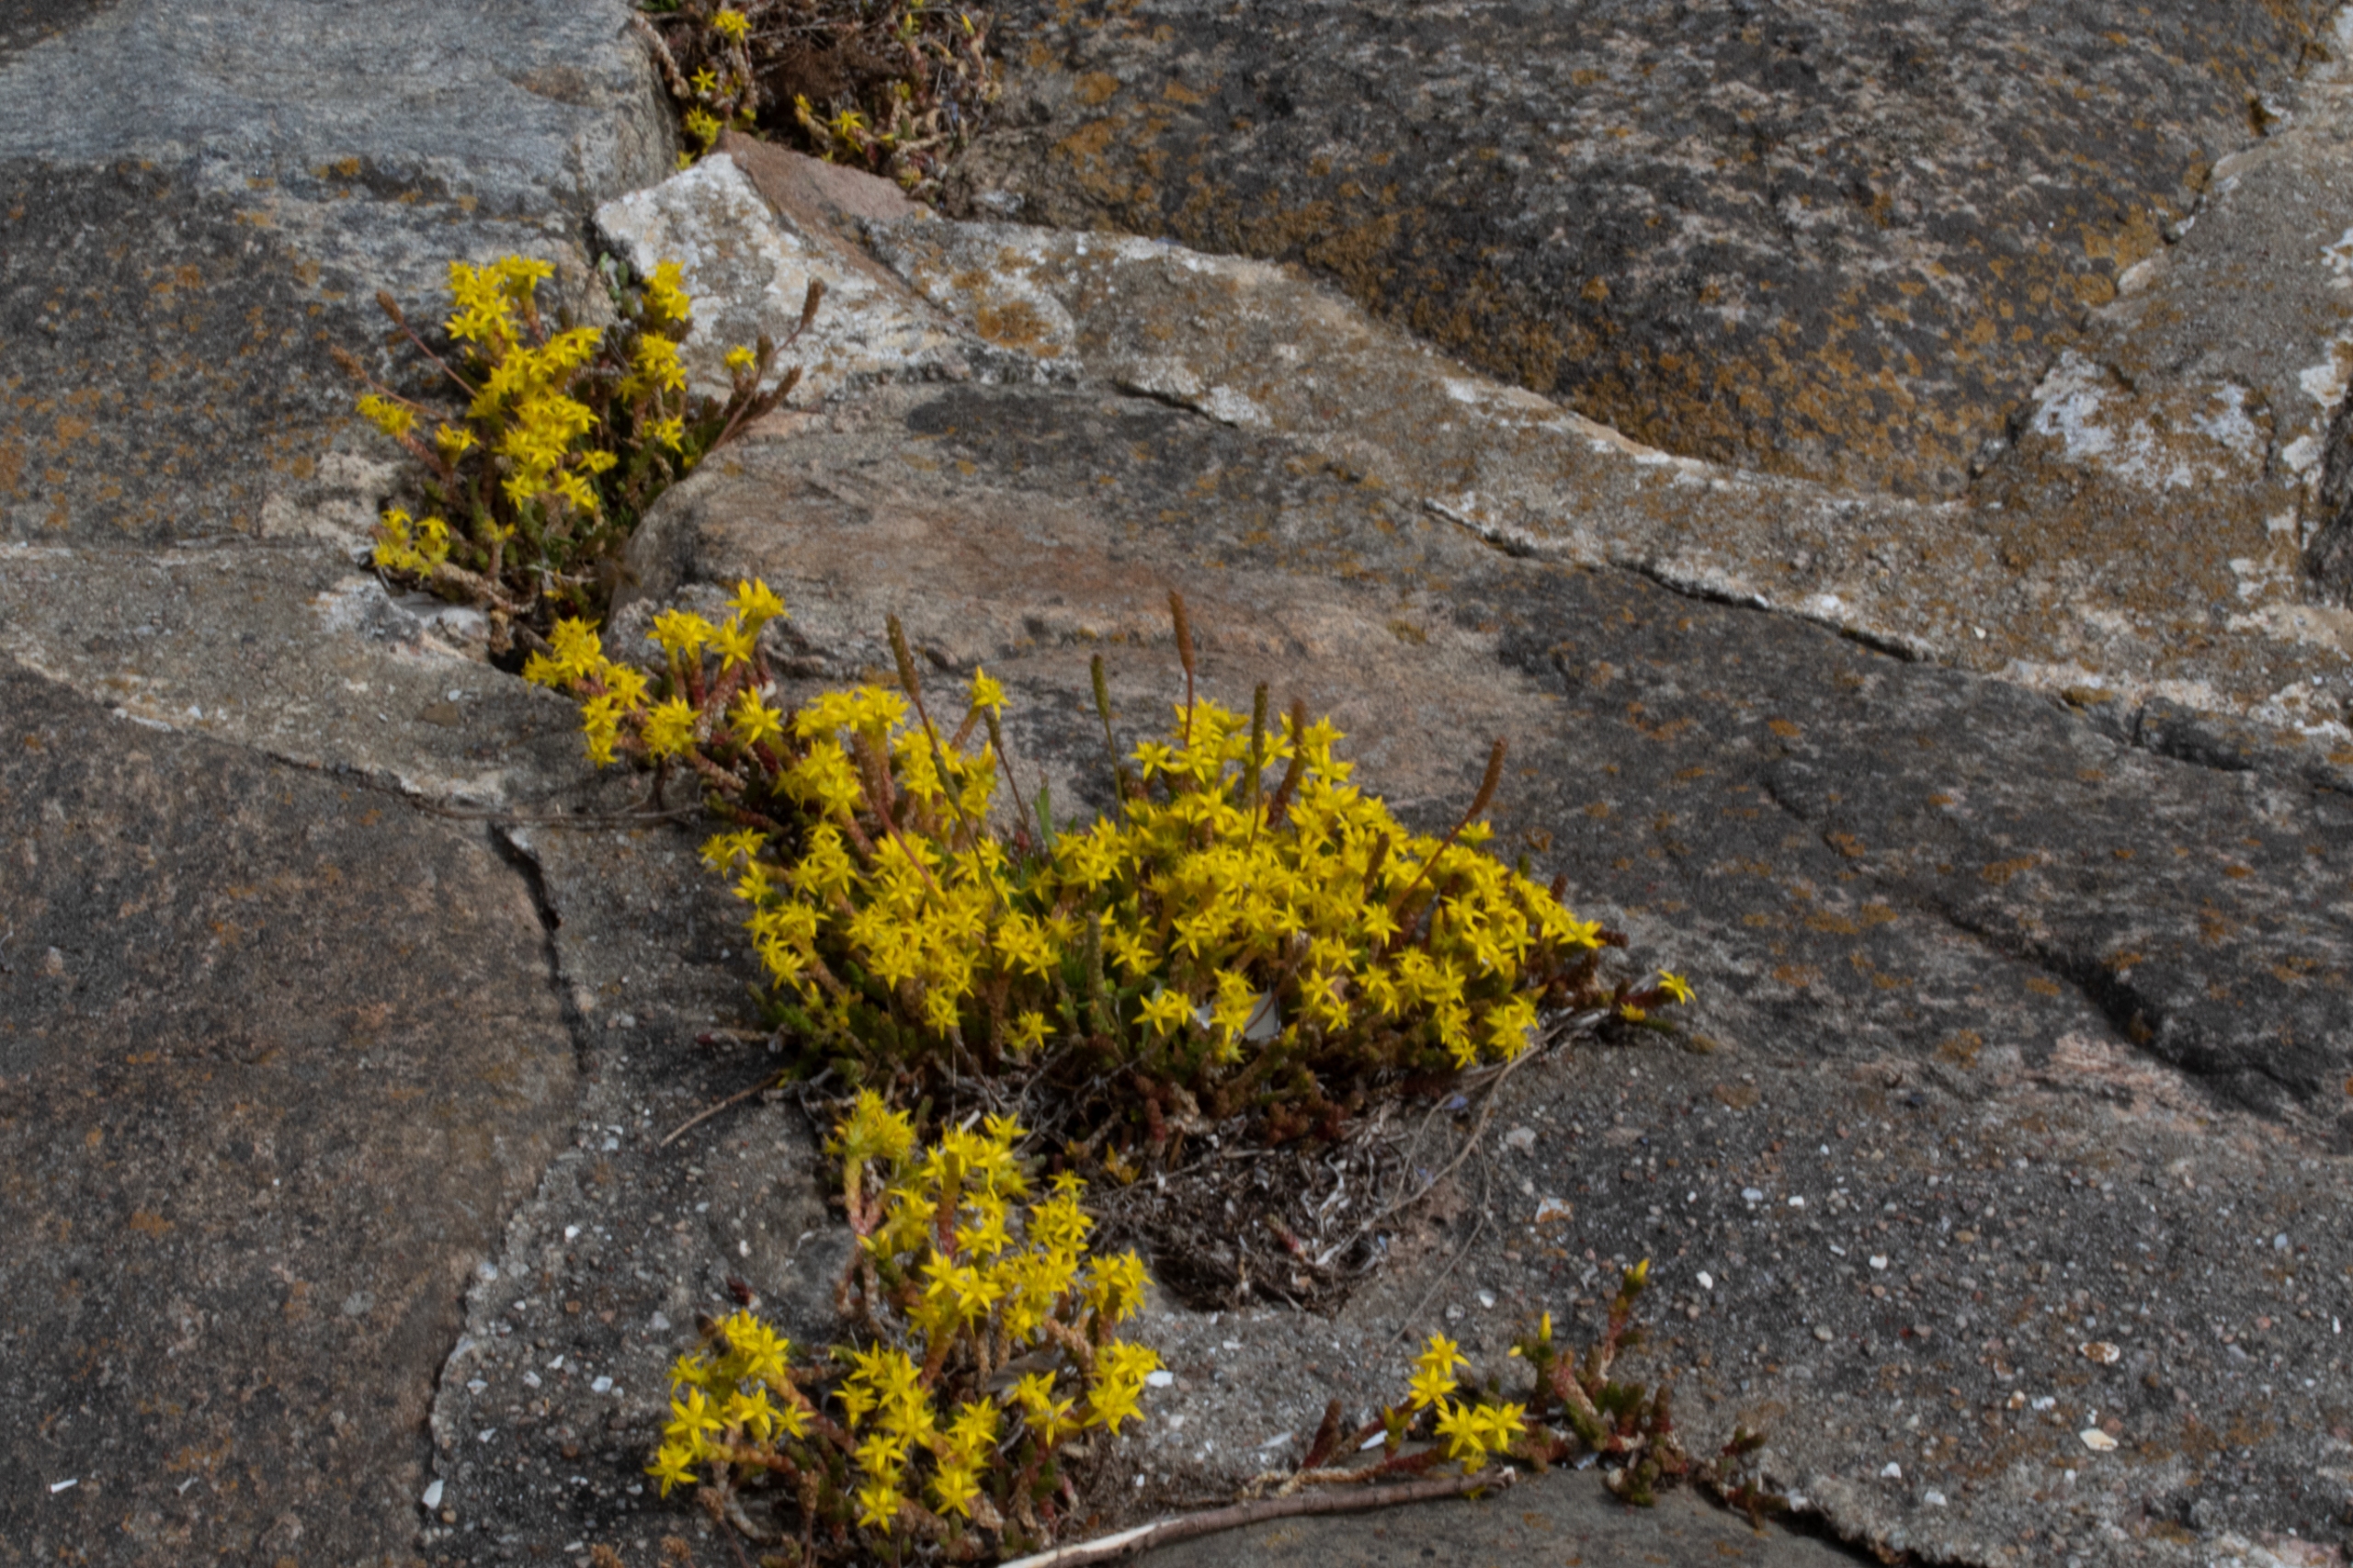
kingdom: Plantae
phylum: Tracheophyta
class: Magnoliopsida
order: Saxifragales
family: Crassulaceae
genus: Sedum
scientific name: Sedum acre
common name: Bidende stenurt
